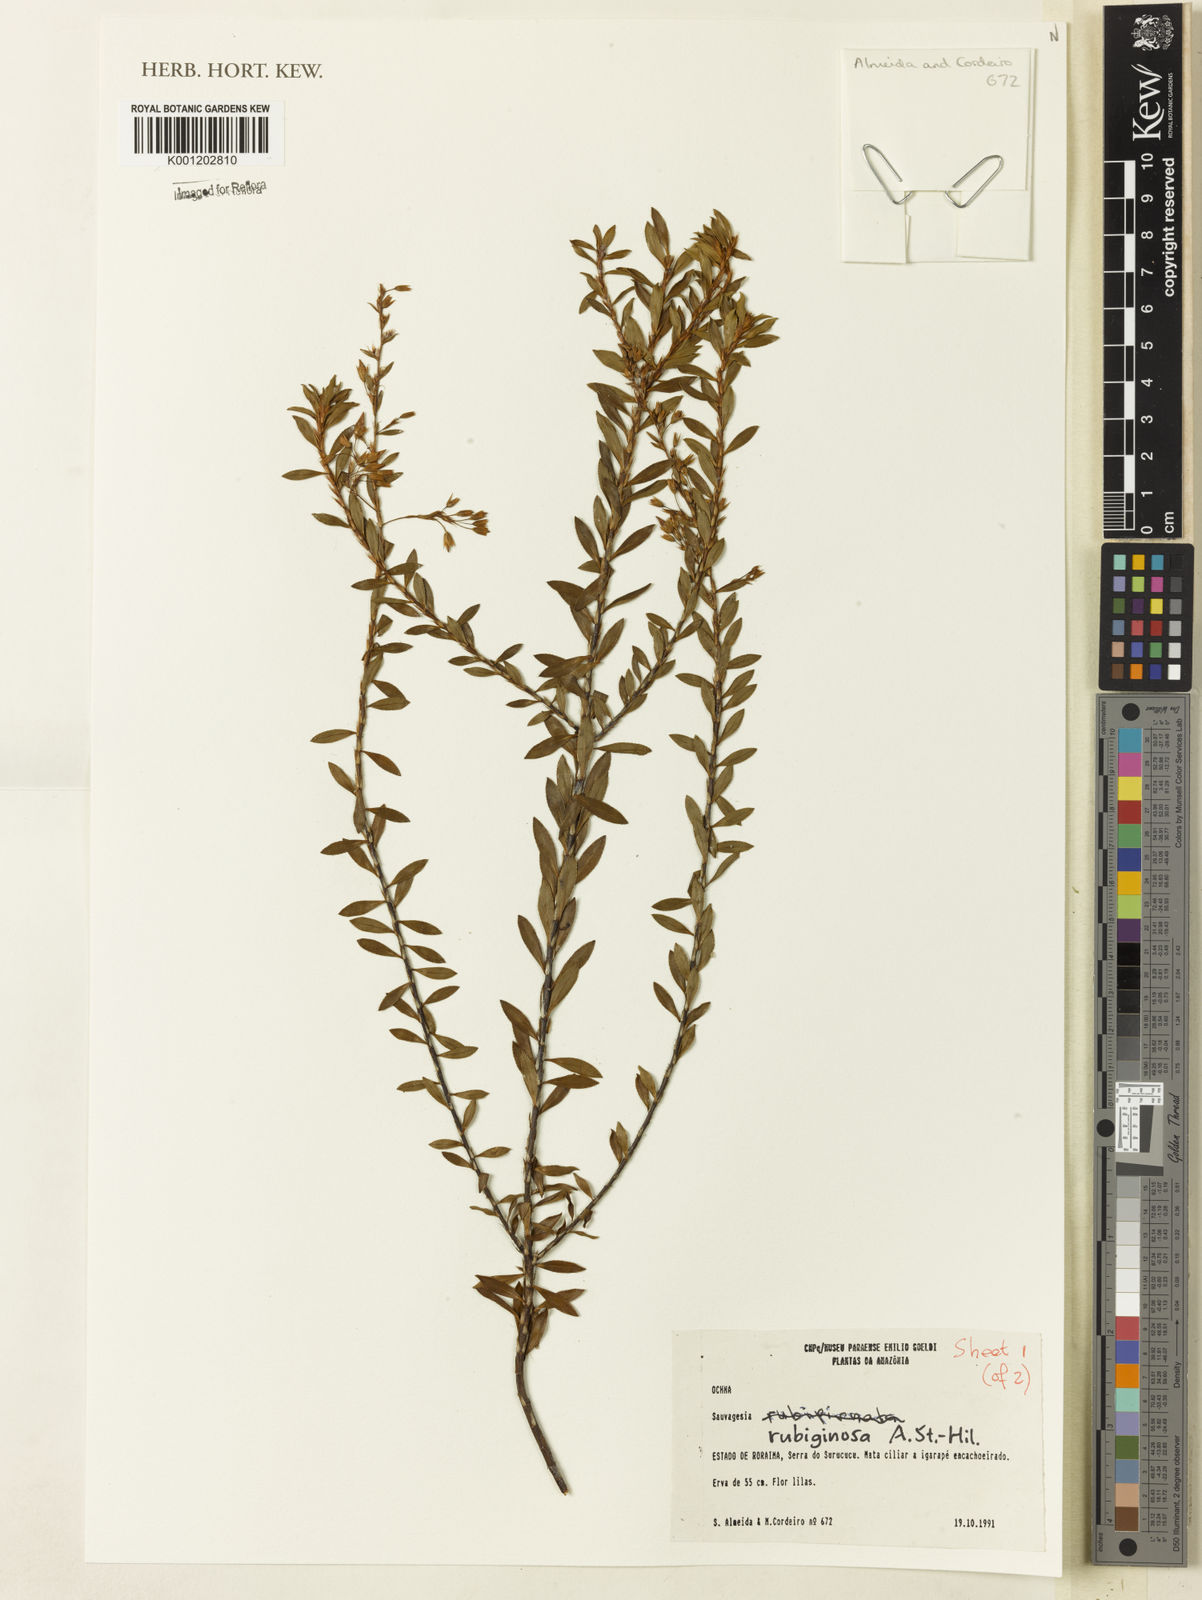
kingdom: Plantae
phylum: Tracheophyta
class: Magnoliopsida
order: Malpighiales
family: Ochnaceae
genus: Sauvagesia
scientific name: Sauvagesia rubiginosa
